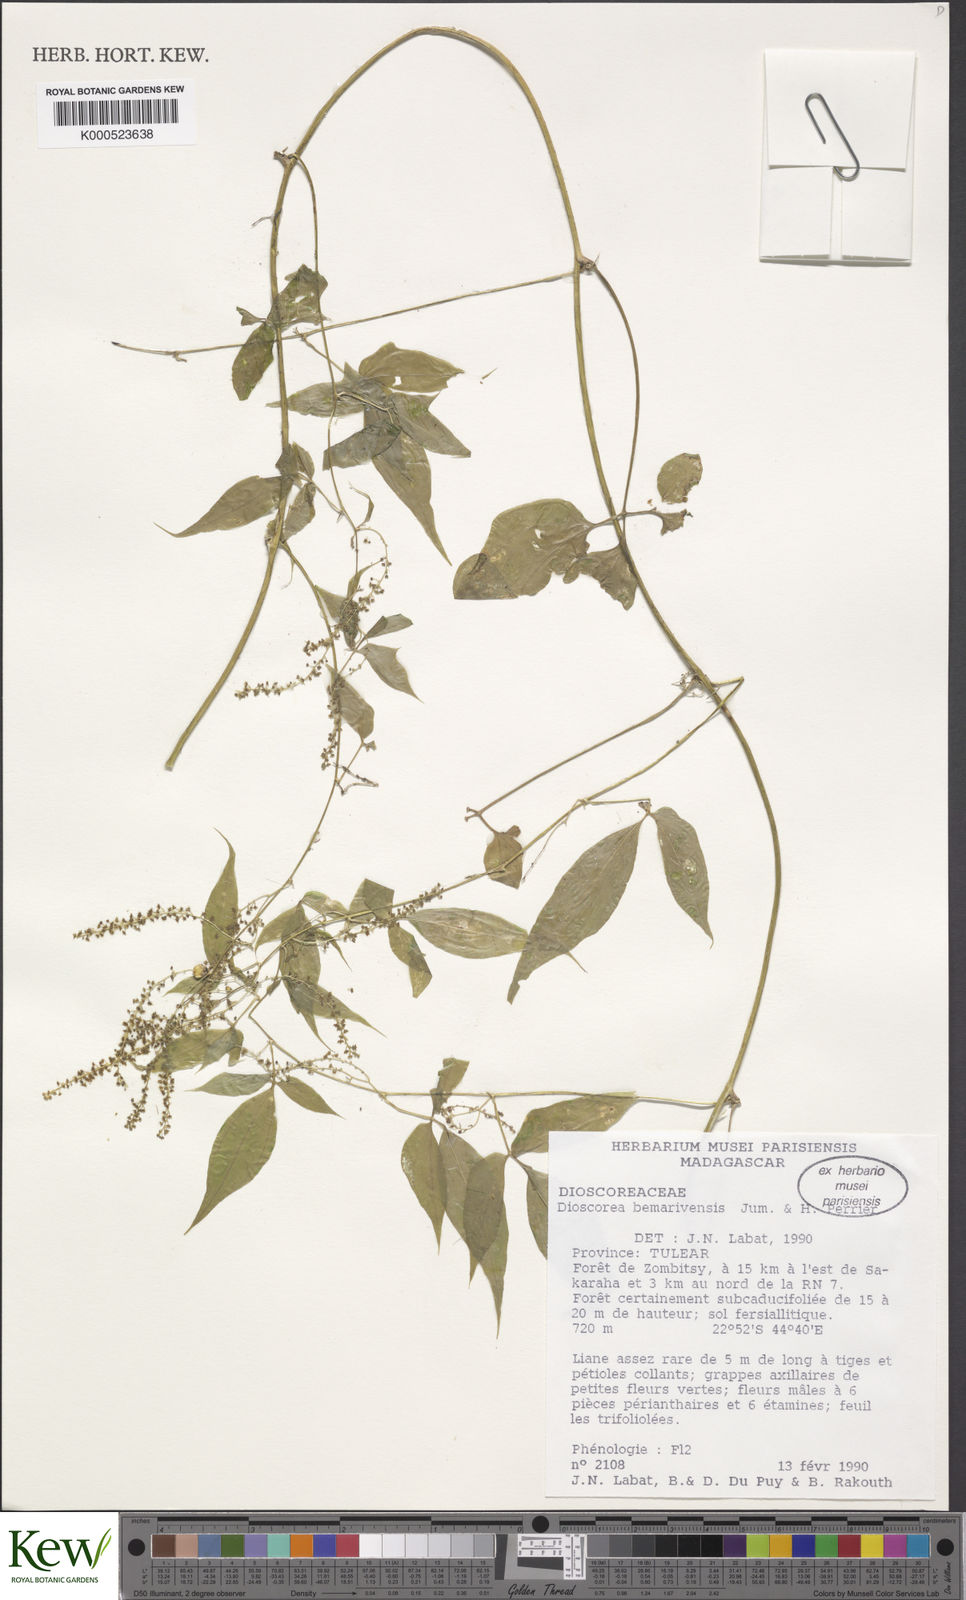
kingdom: Plantae
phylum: Tracheophyta
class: Liliopsida
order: Dioscoreales
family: Dioscoreaceae
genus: Dioscorea
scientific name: Dioscorea bemarivensis
